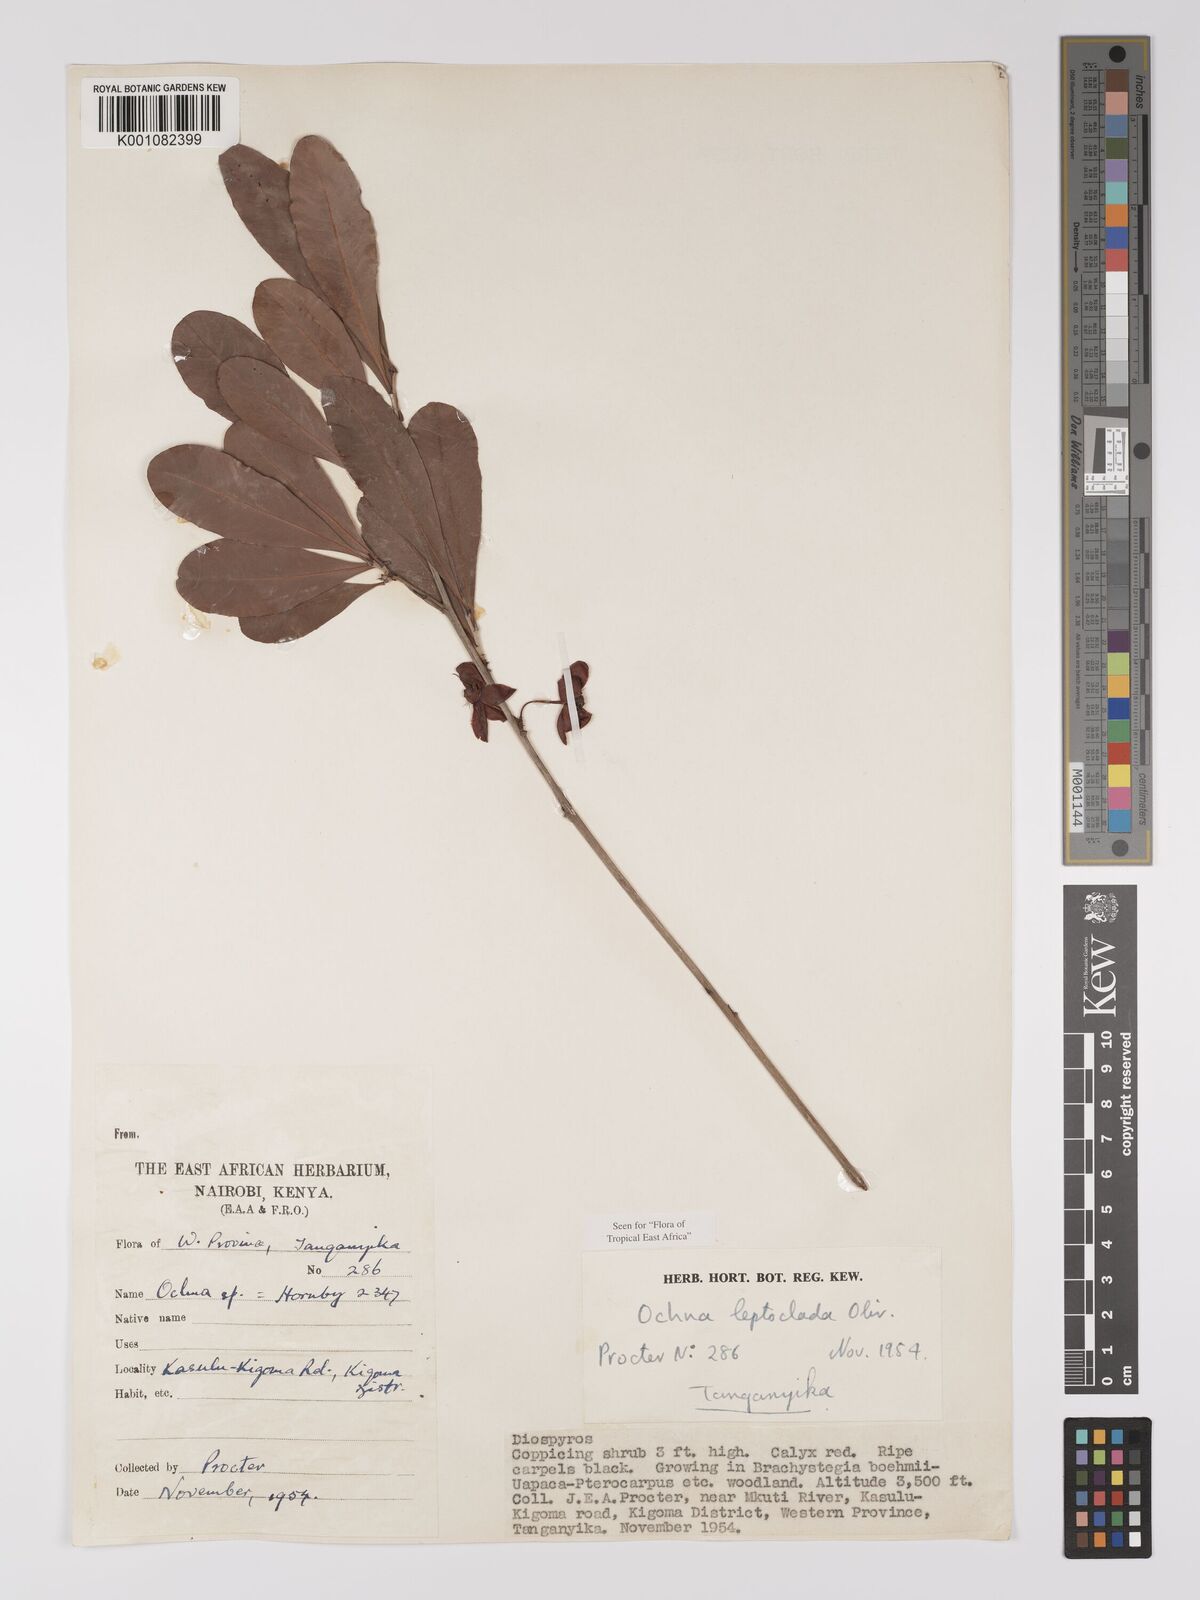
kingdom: Plantae
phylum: Tracheophyta
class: Magnoliopsida
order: Malpighiales
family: Ochnaceae
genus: Ochna
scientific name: Ochna leptoclada
